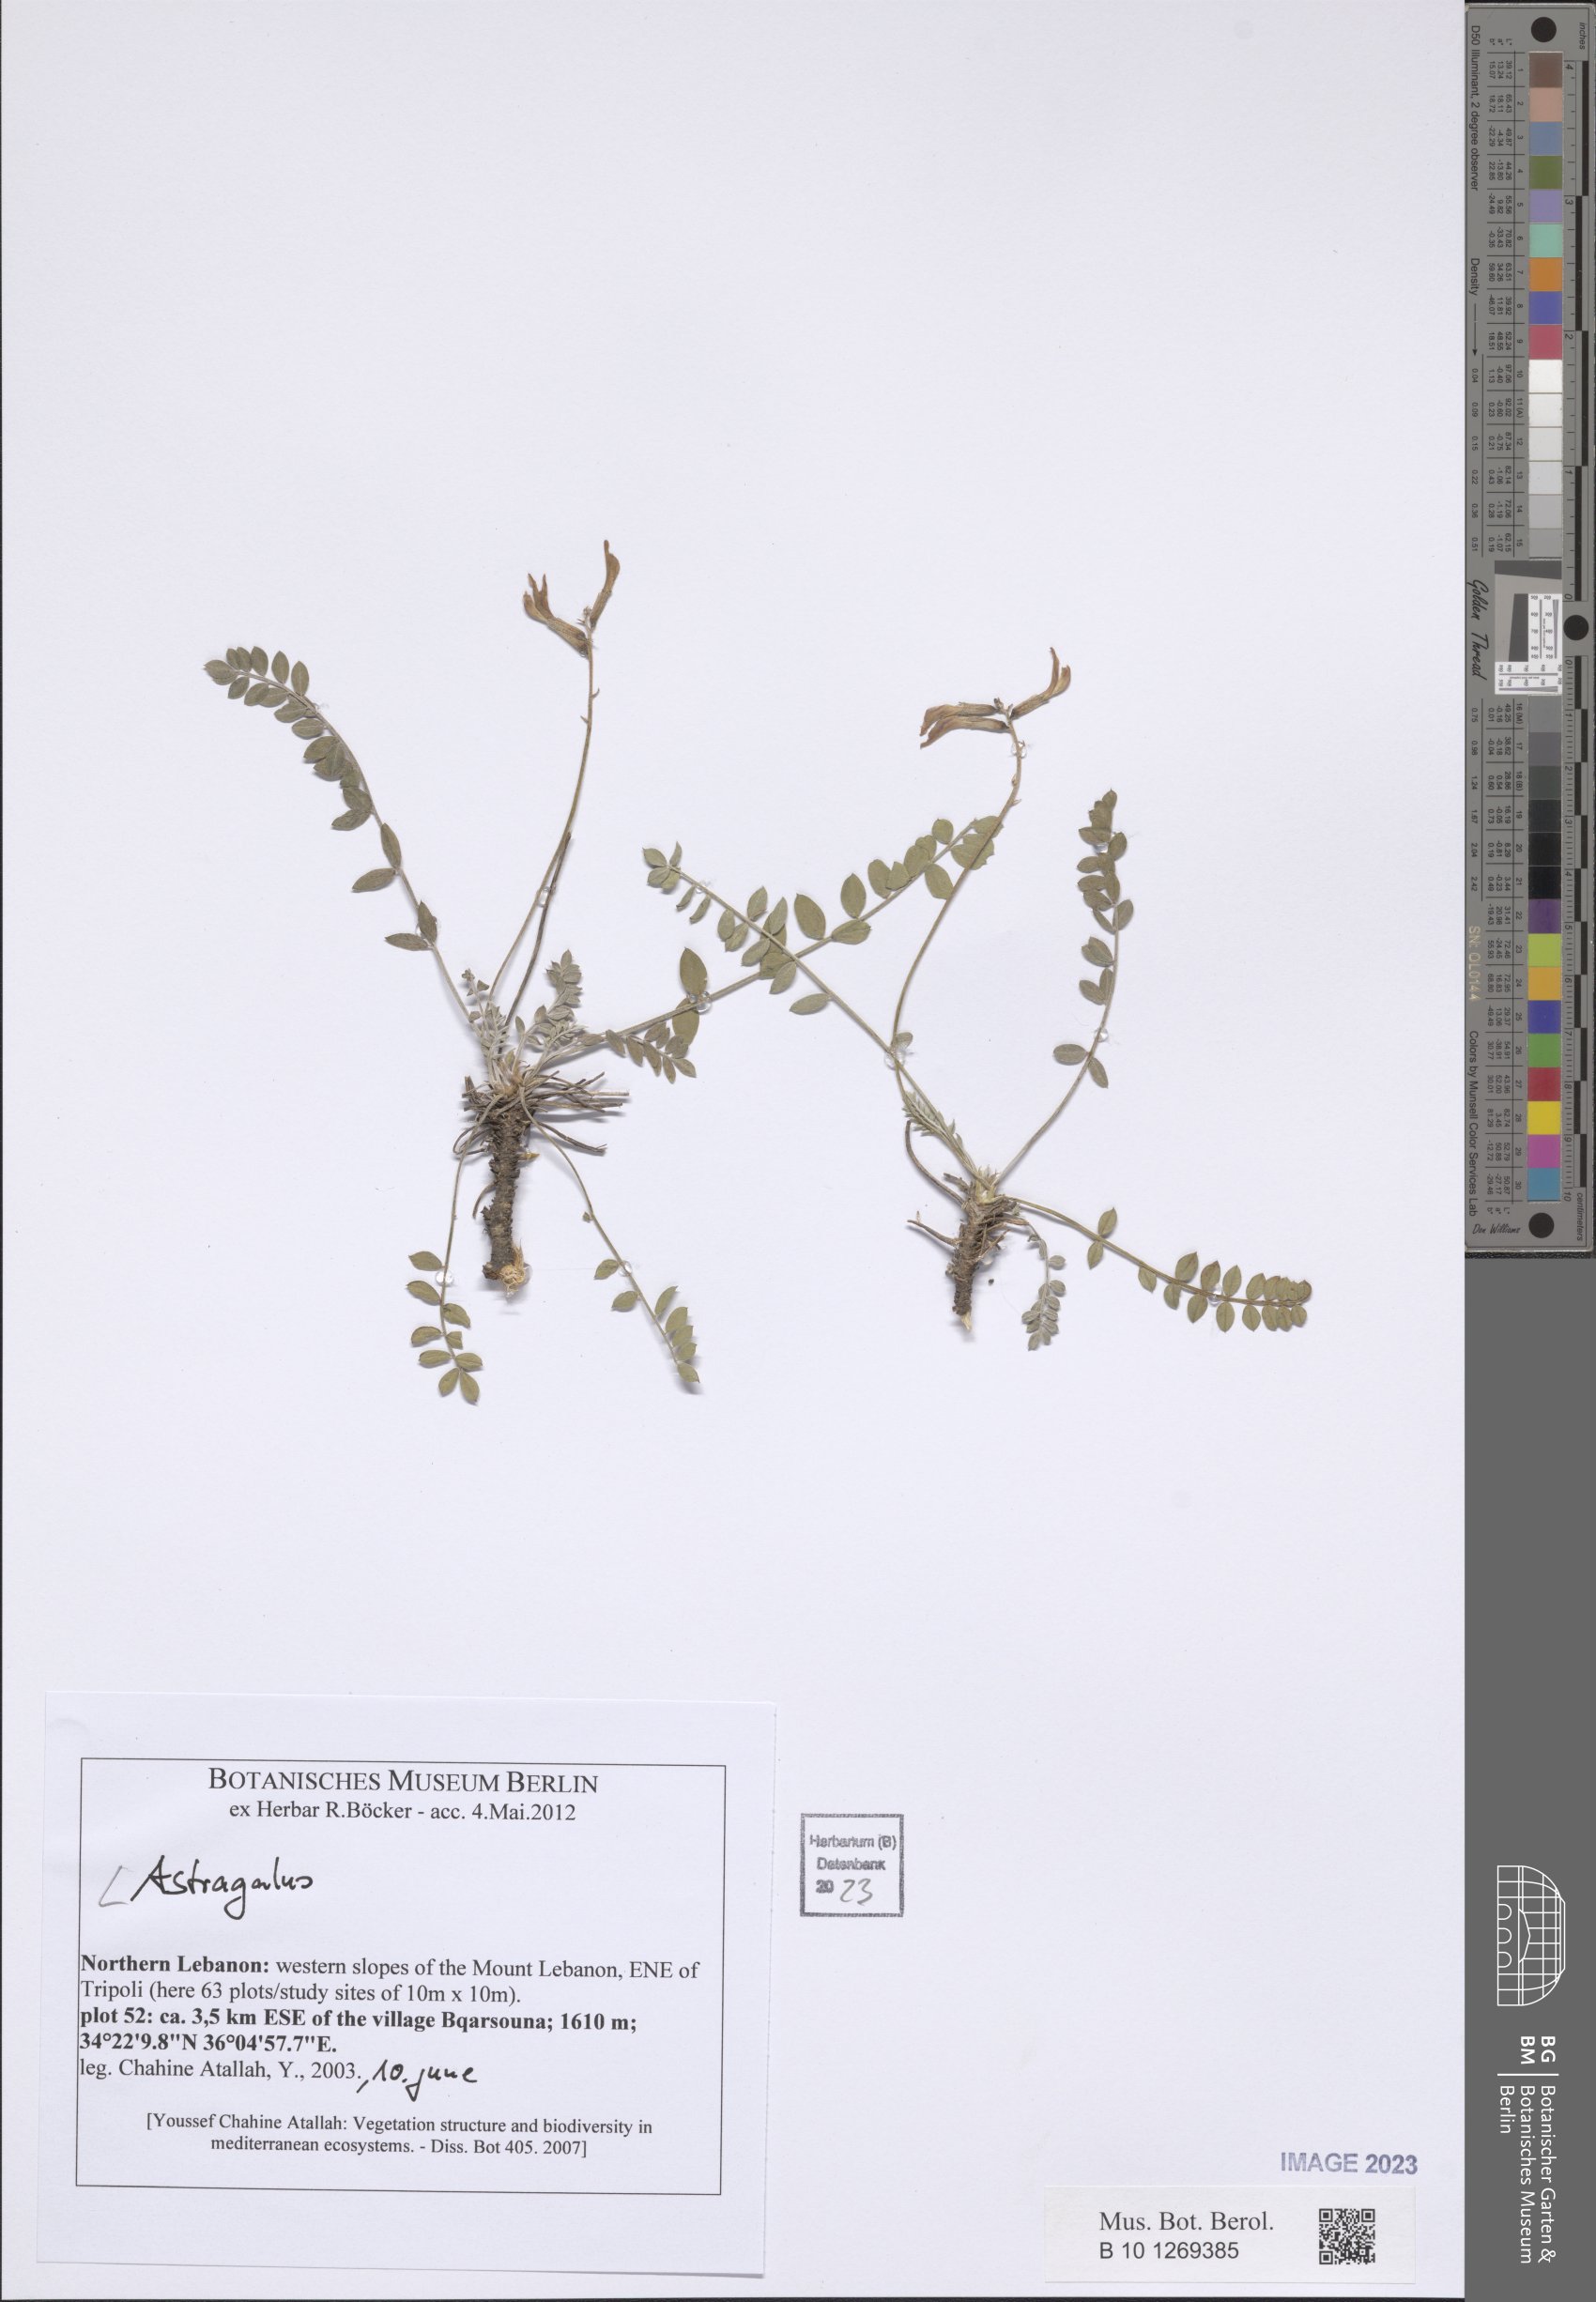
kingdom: Plantae
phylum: Tracheophyta
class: Magnoliopsida
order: Fabales
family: Fabaceae
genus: Astragalus
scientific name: Astragalus
